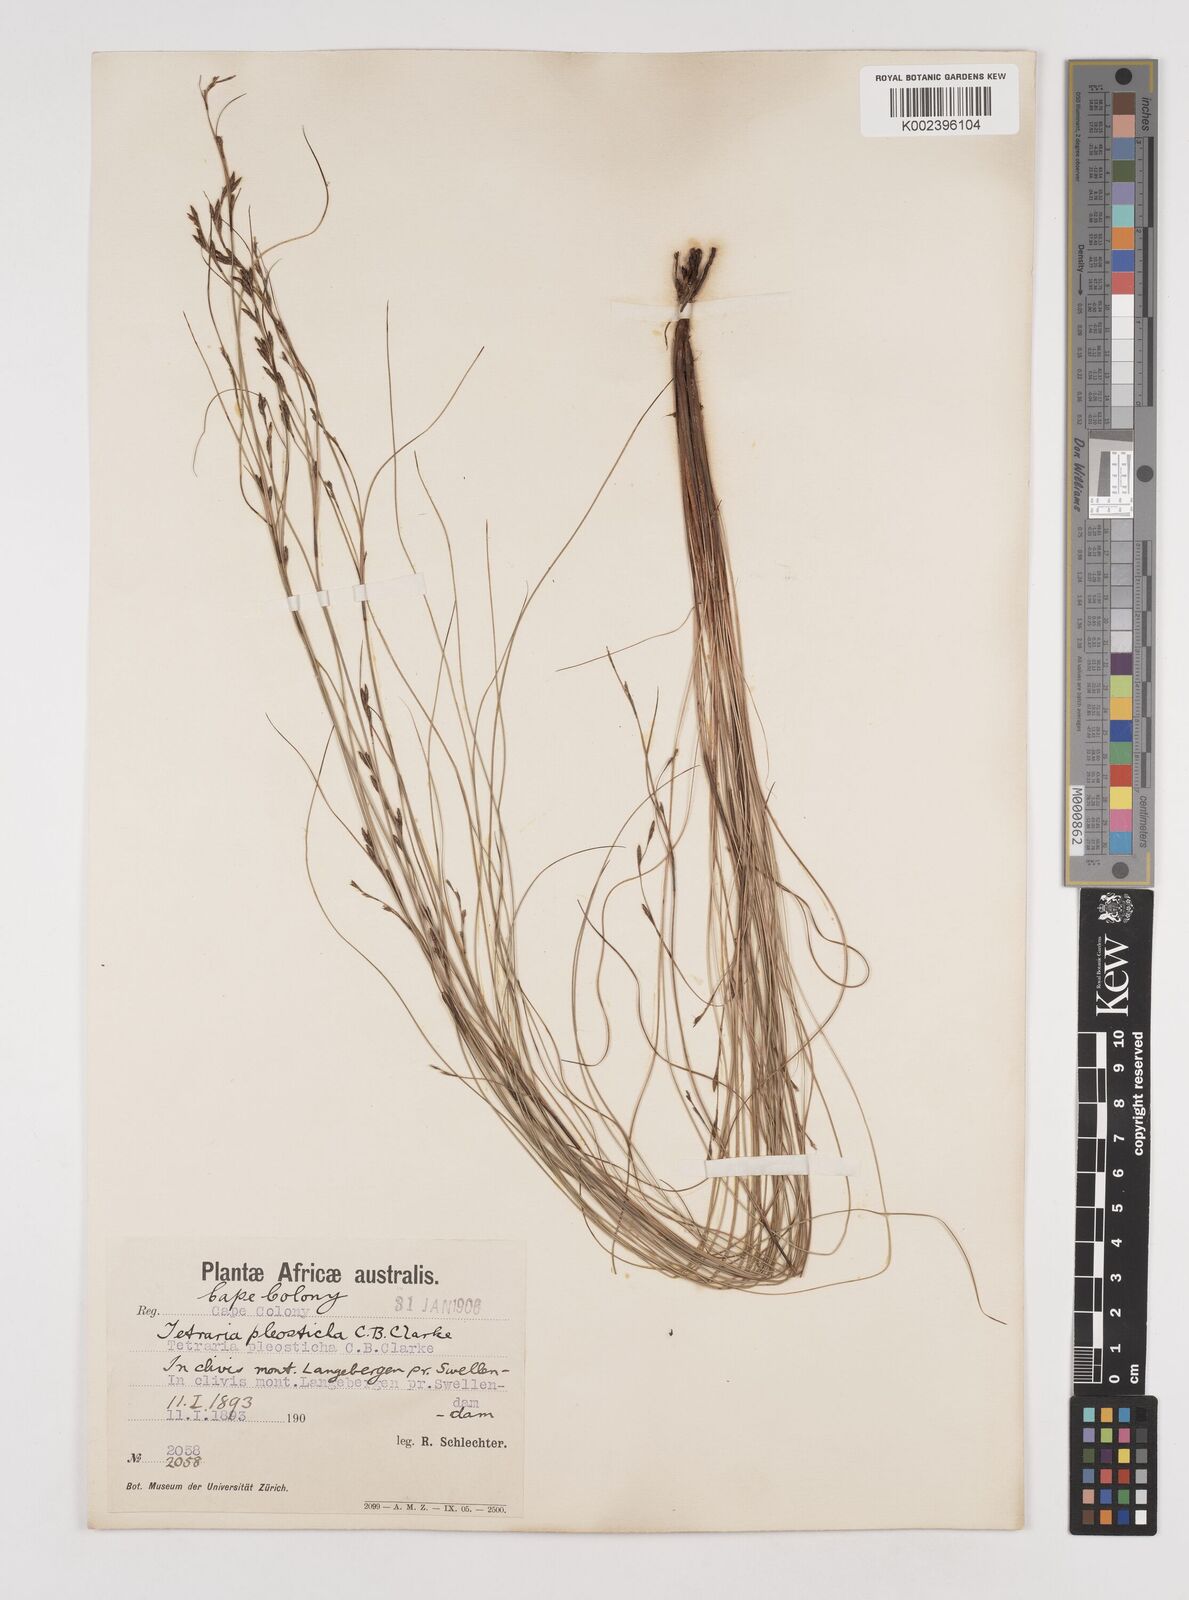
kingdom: Plantae
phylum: Tracheophyta
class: Liliopsida
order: Poales
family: Cyperaceae
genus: Tetraria
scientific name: Tetraria pleosticha
